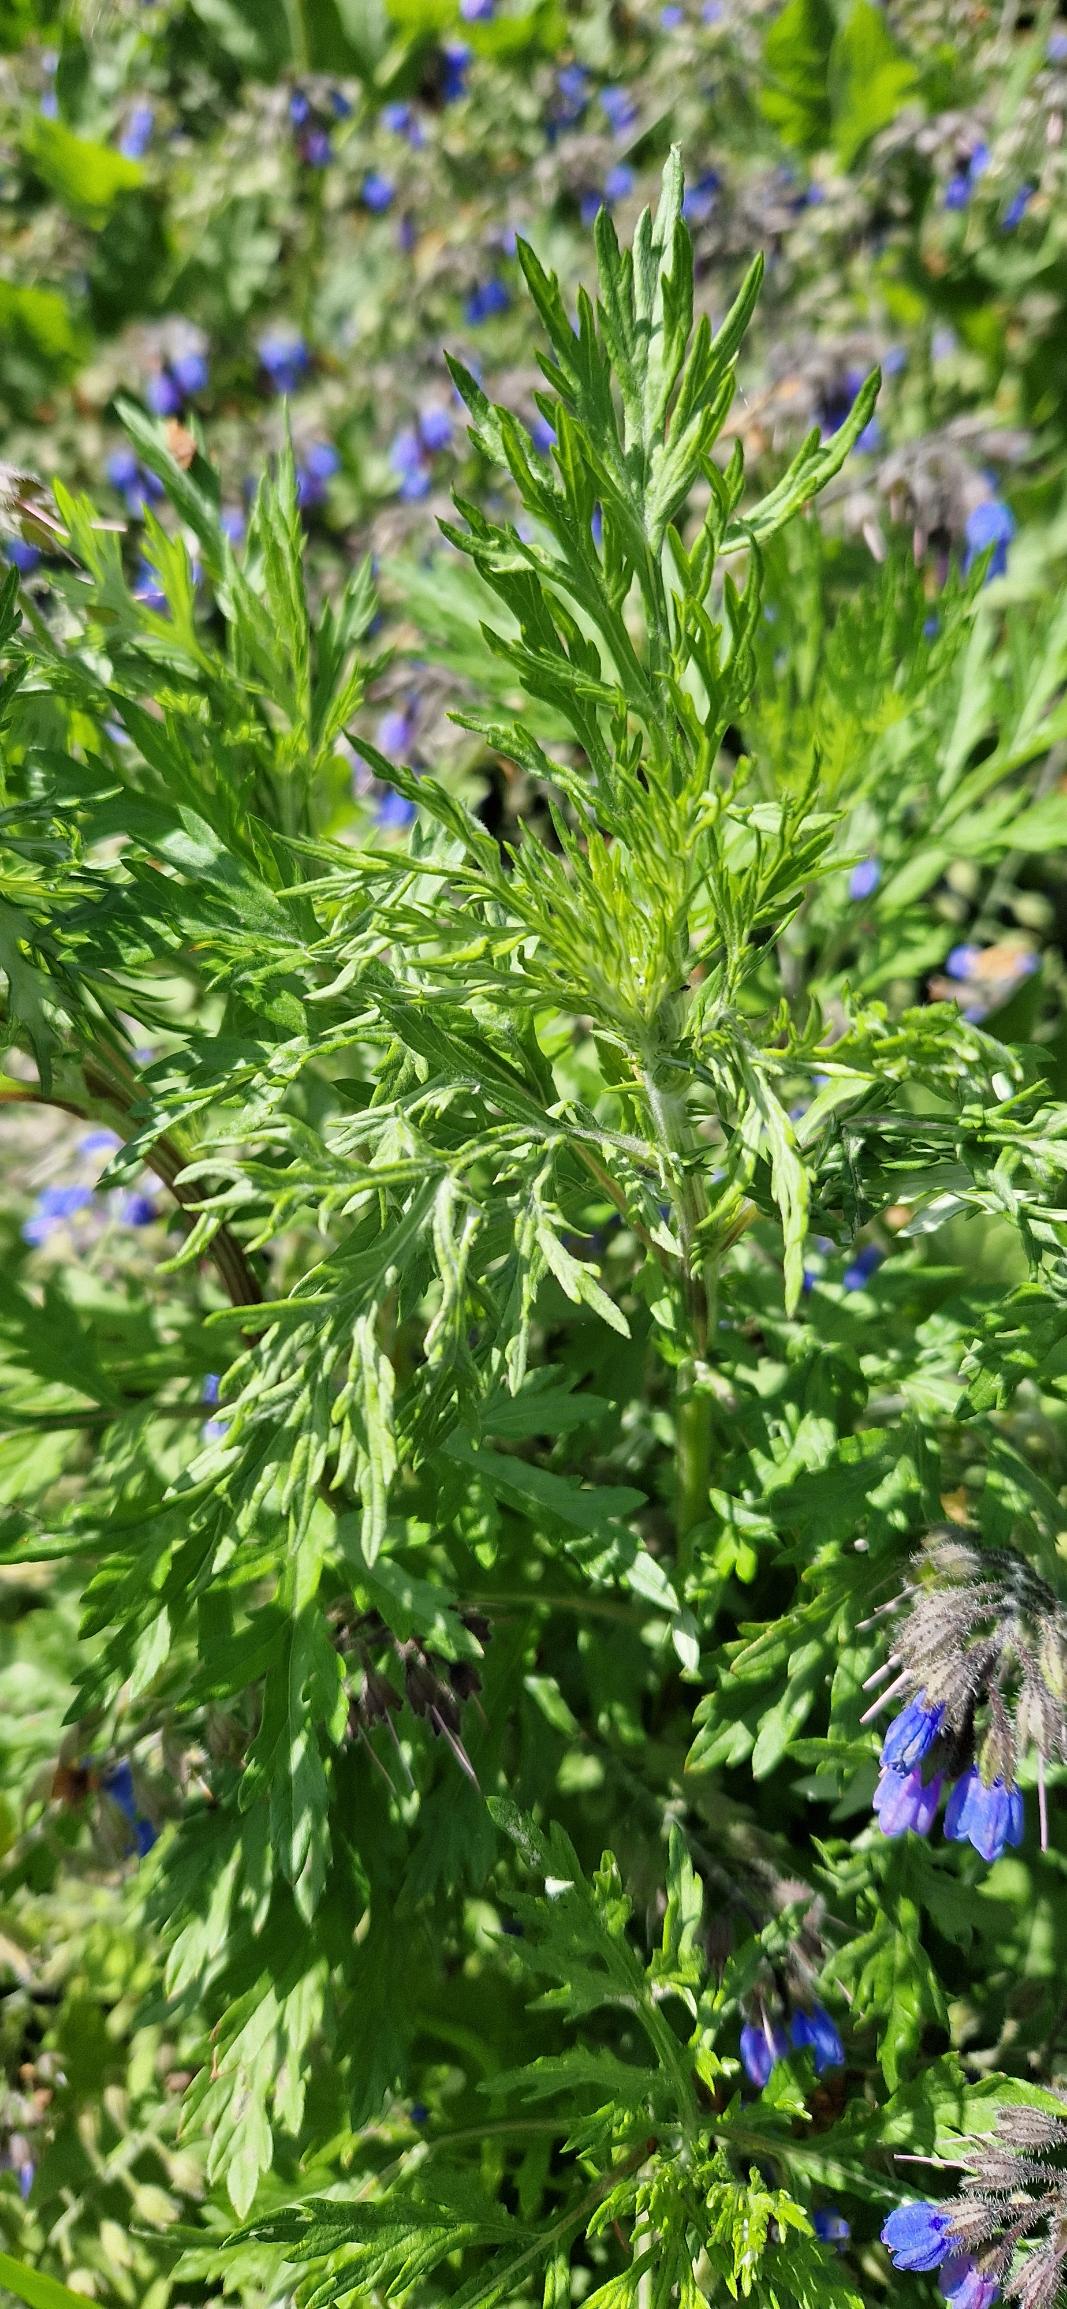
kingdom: Plantae
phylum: Tracheophyta
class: Magnoliopsida
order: Asterales
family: Asteraceae
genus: Artemisia
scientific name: Artemisia vulgaris
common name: Grå-bynke
